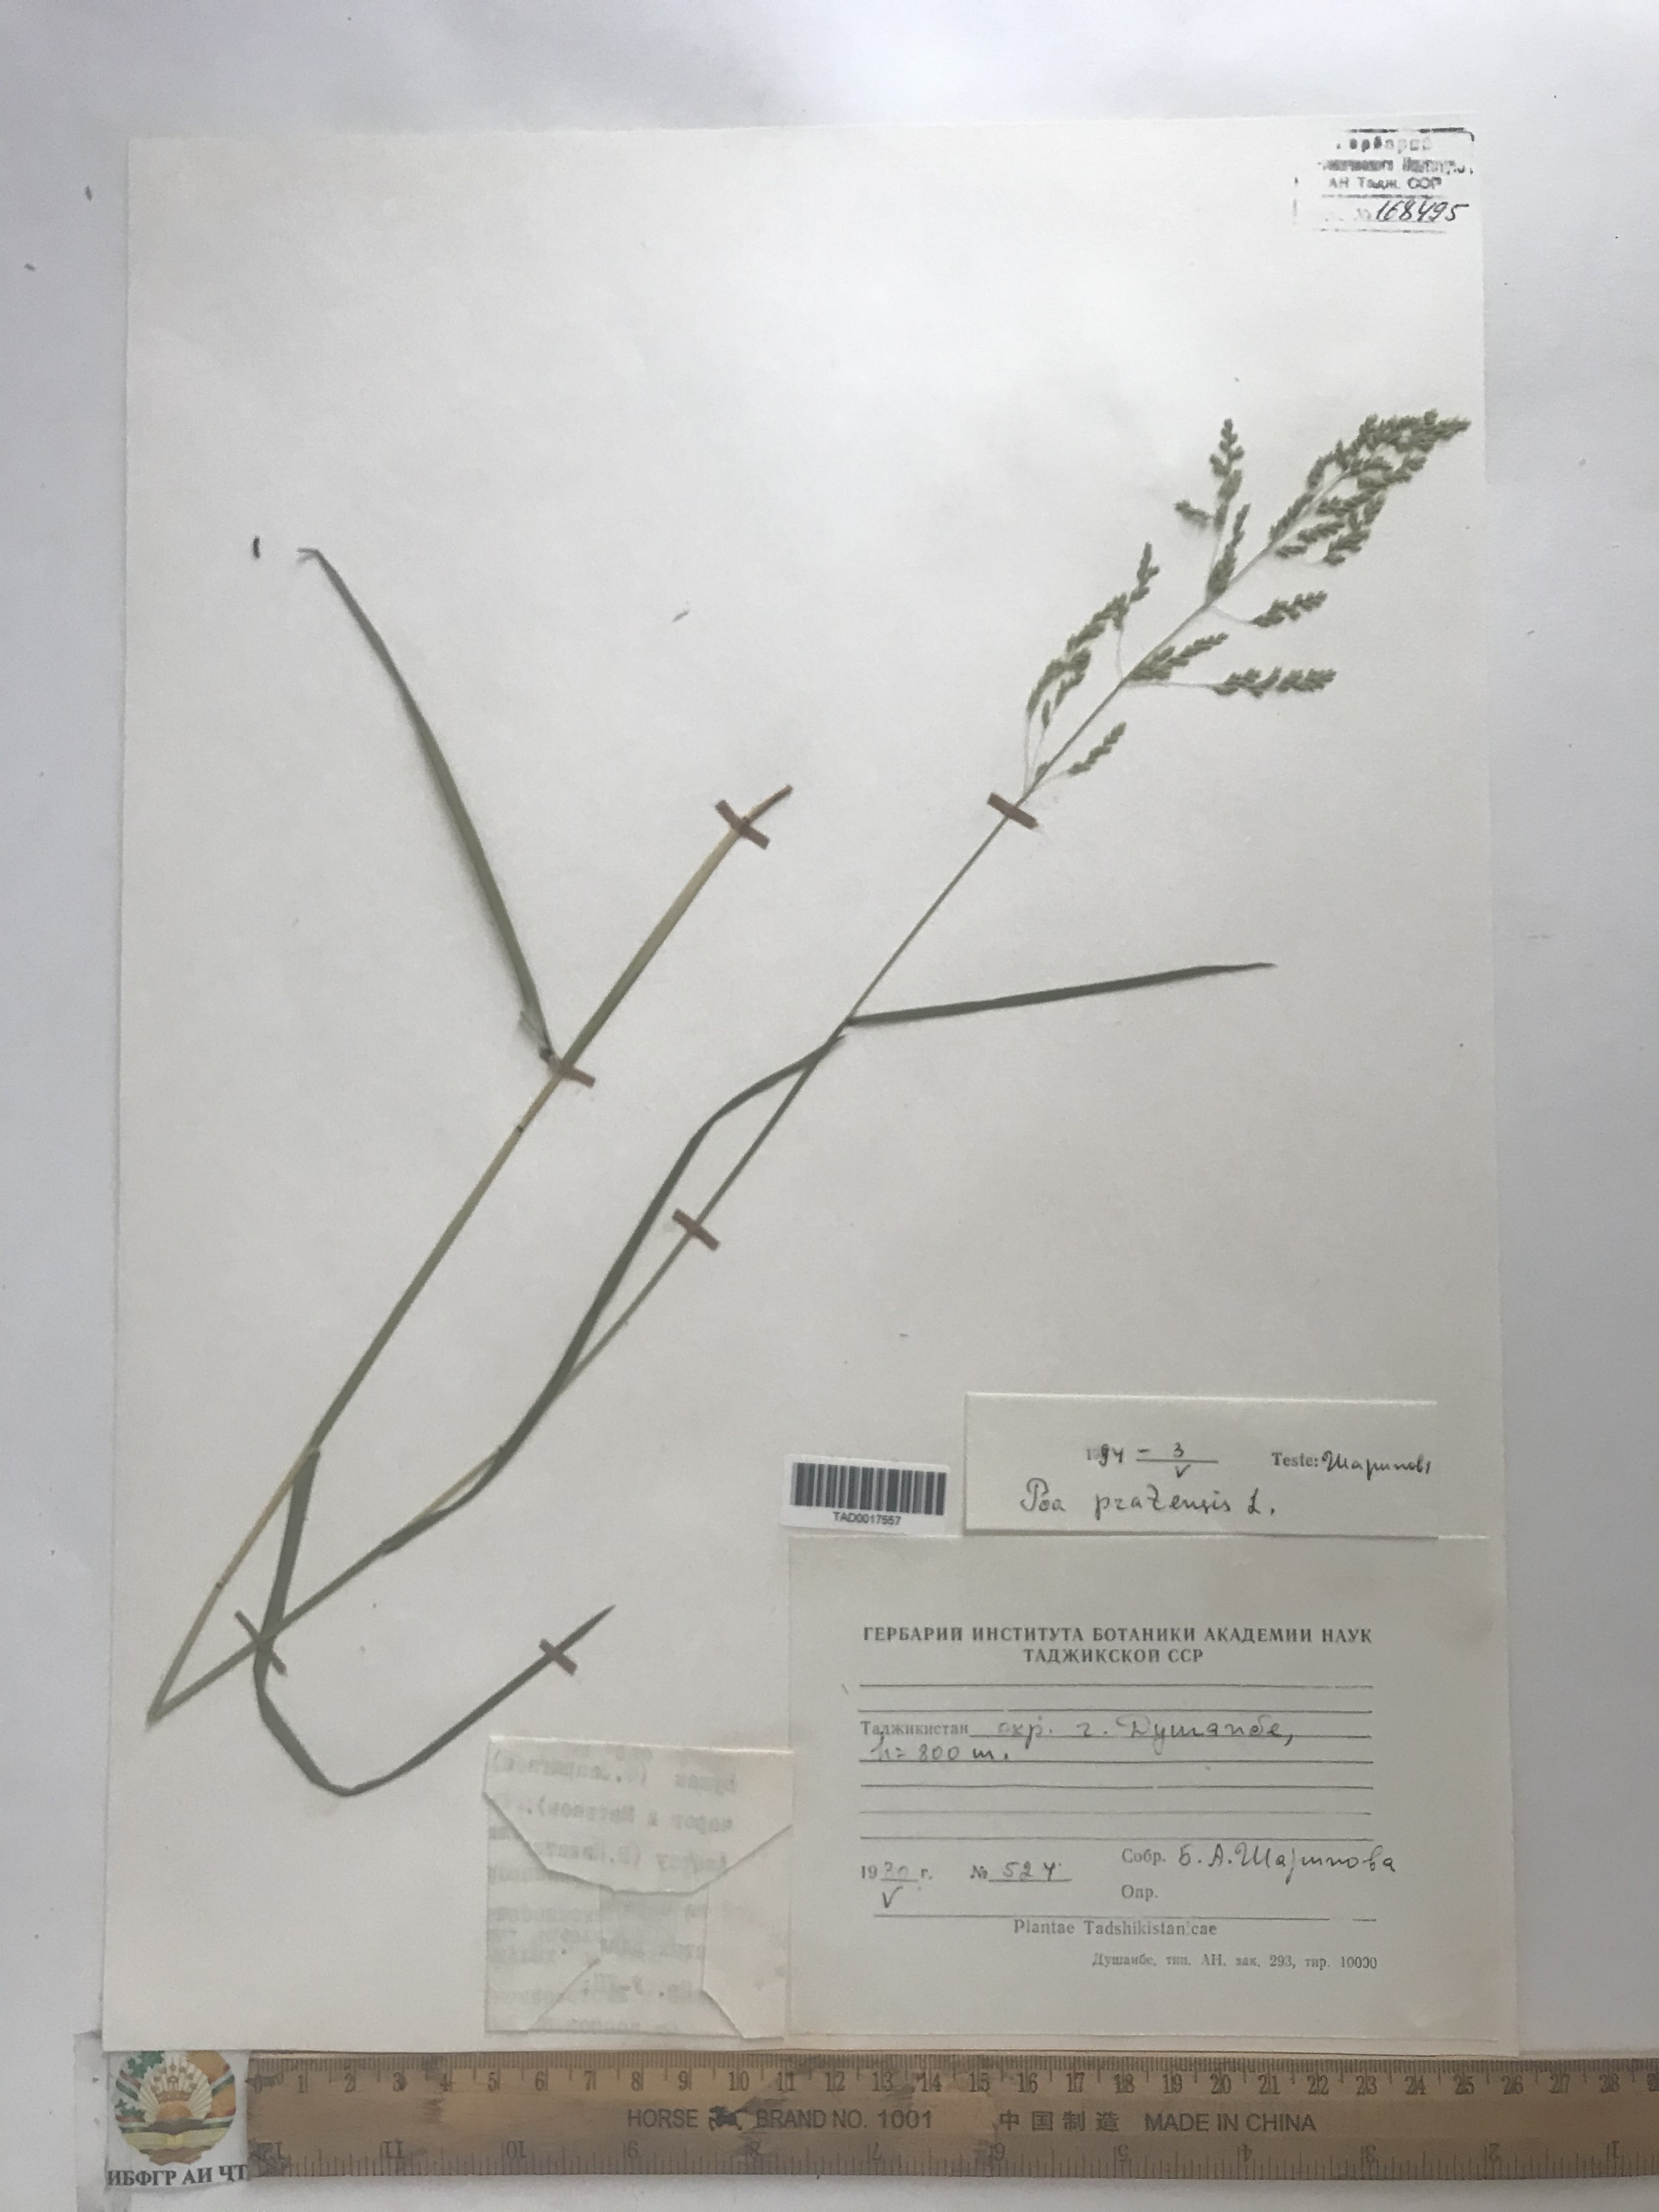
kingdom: Plantae
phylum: Tracheophyta
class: Liliopsida
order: Poales
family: Poaceae
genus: Poa
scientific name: Poa pratensis
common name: Kentucky bluegrass
